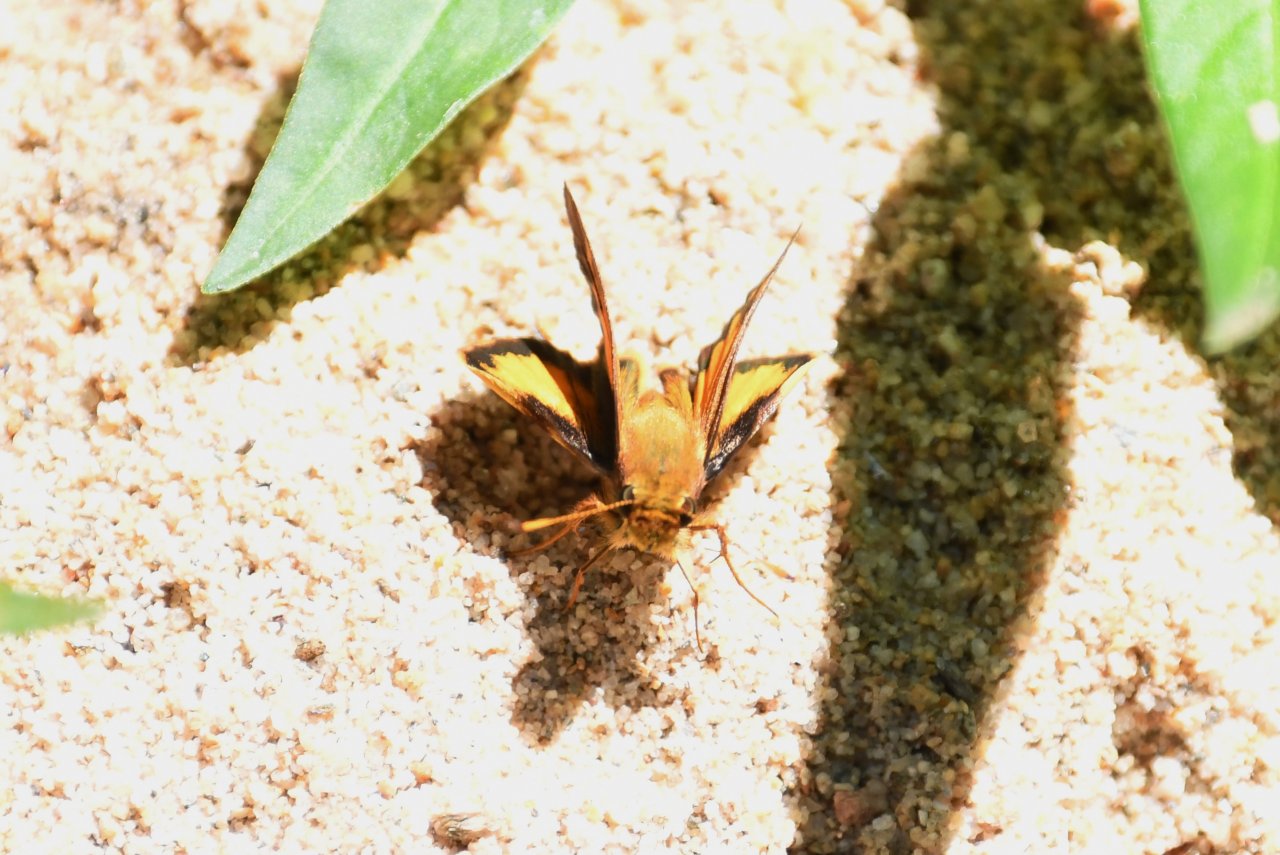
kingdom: Animalia
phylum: Arthropoda
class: Insecta
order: Lepidoptera
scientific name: Lepidoptera
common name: Butterflies
